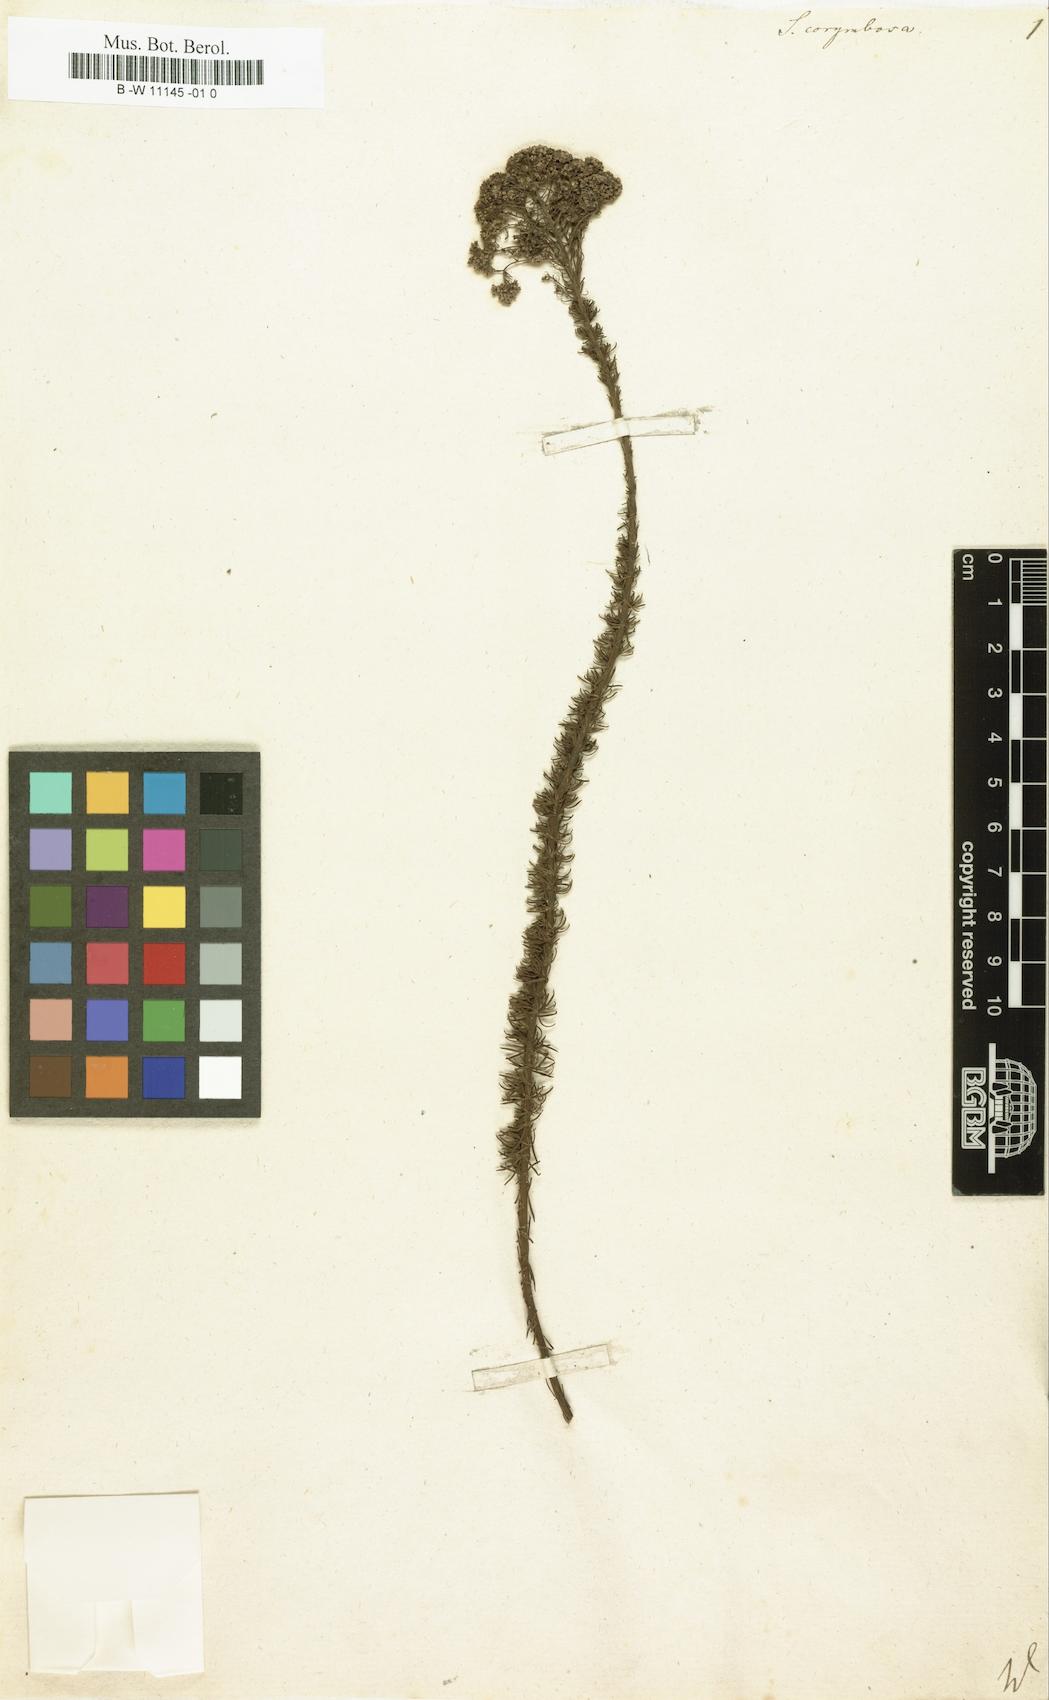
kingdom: Plantae
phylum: Tracheophyta
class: Magnoliopsida
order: Lamiales
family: Scrophulariaceae
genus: Selago
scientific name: Selago corymbosa
